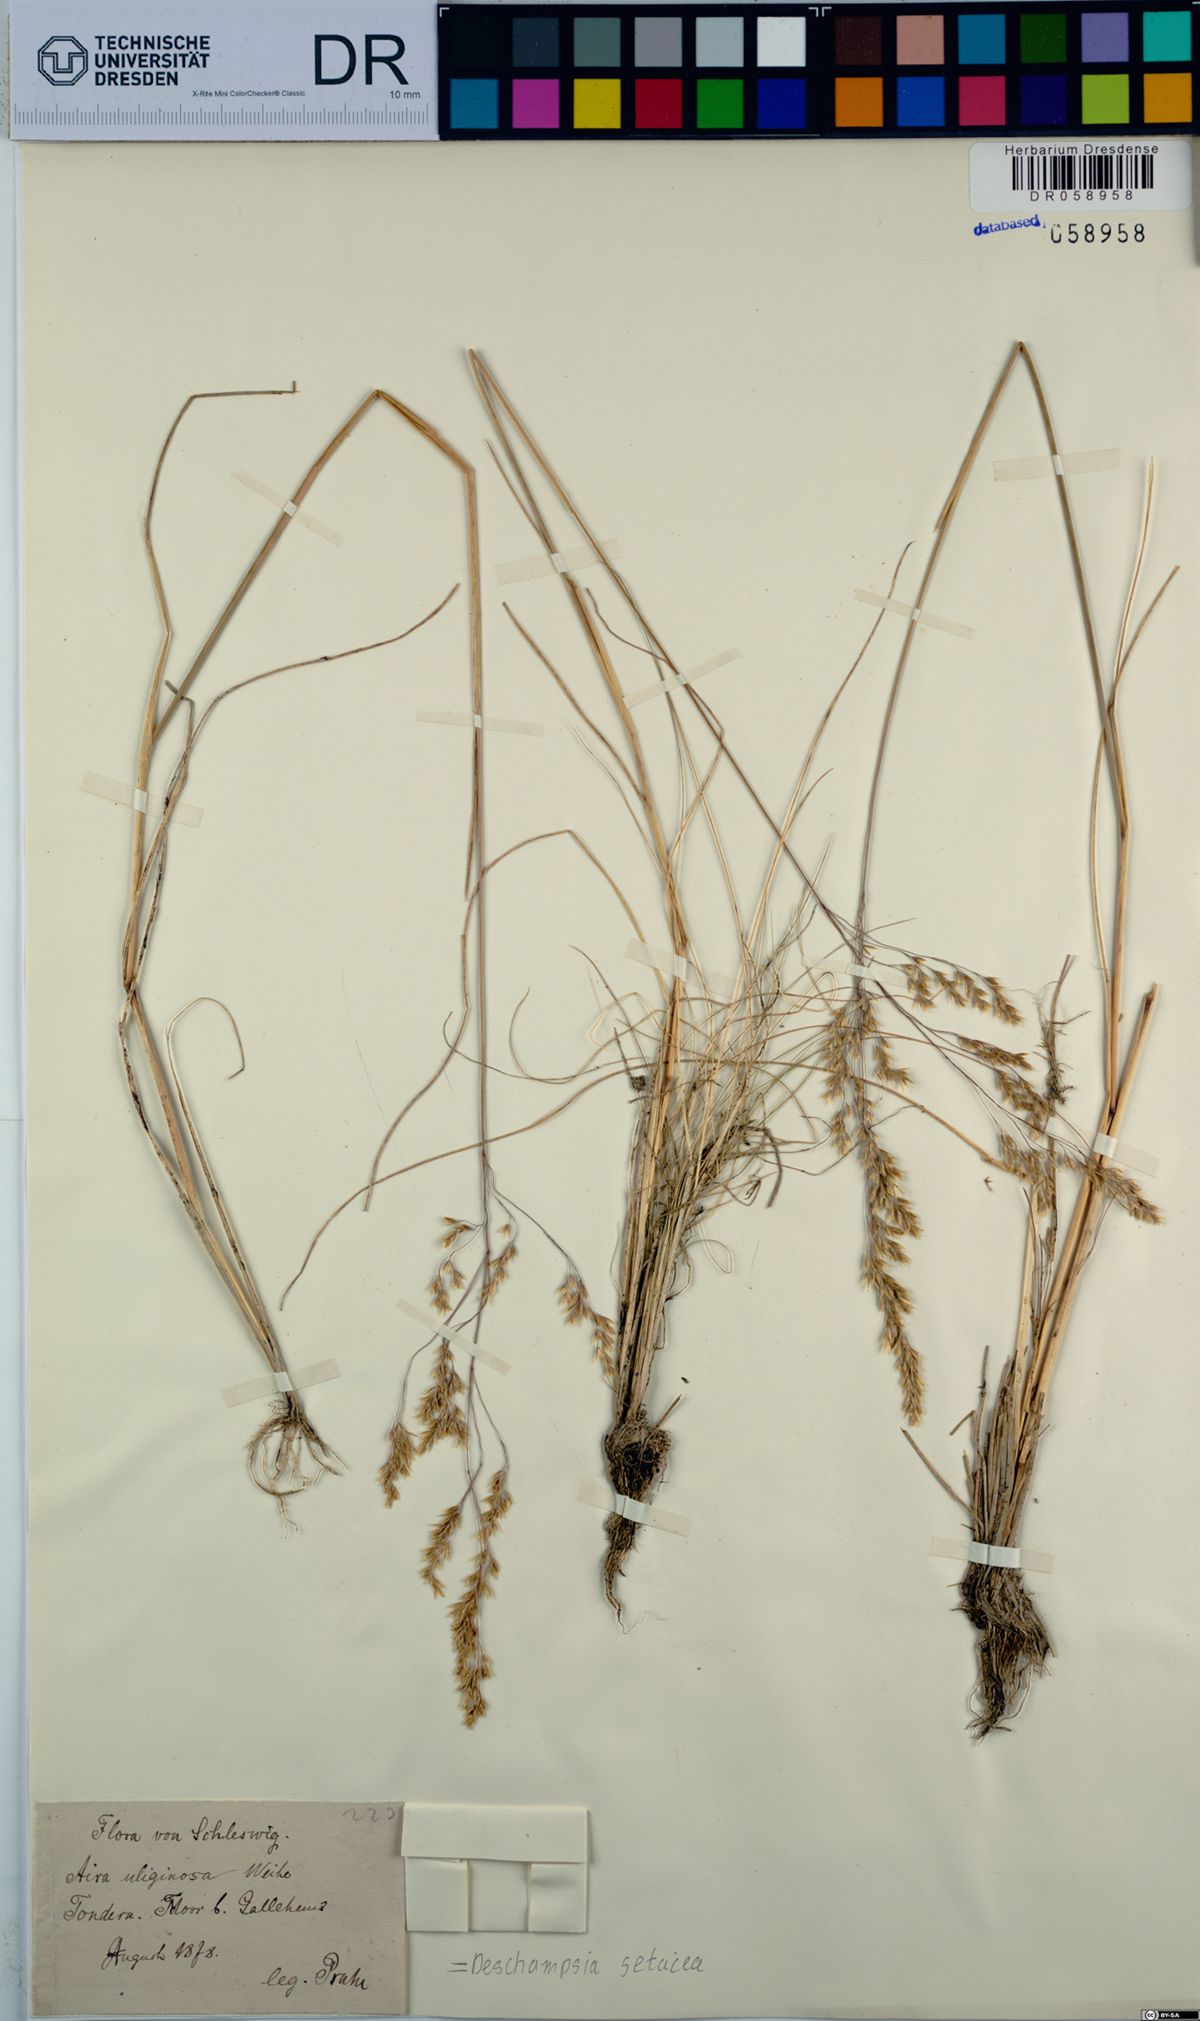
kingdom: Plantae
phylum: Tracheophyta
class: Liliopsida
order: Poales
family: Poaceae
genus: Deschampsia
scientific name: Deschampsia setacea
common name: Bog hair-grass
